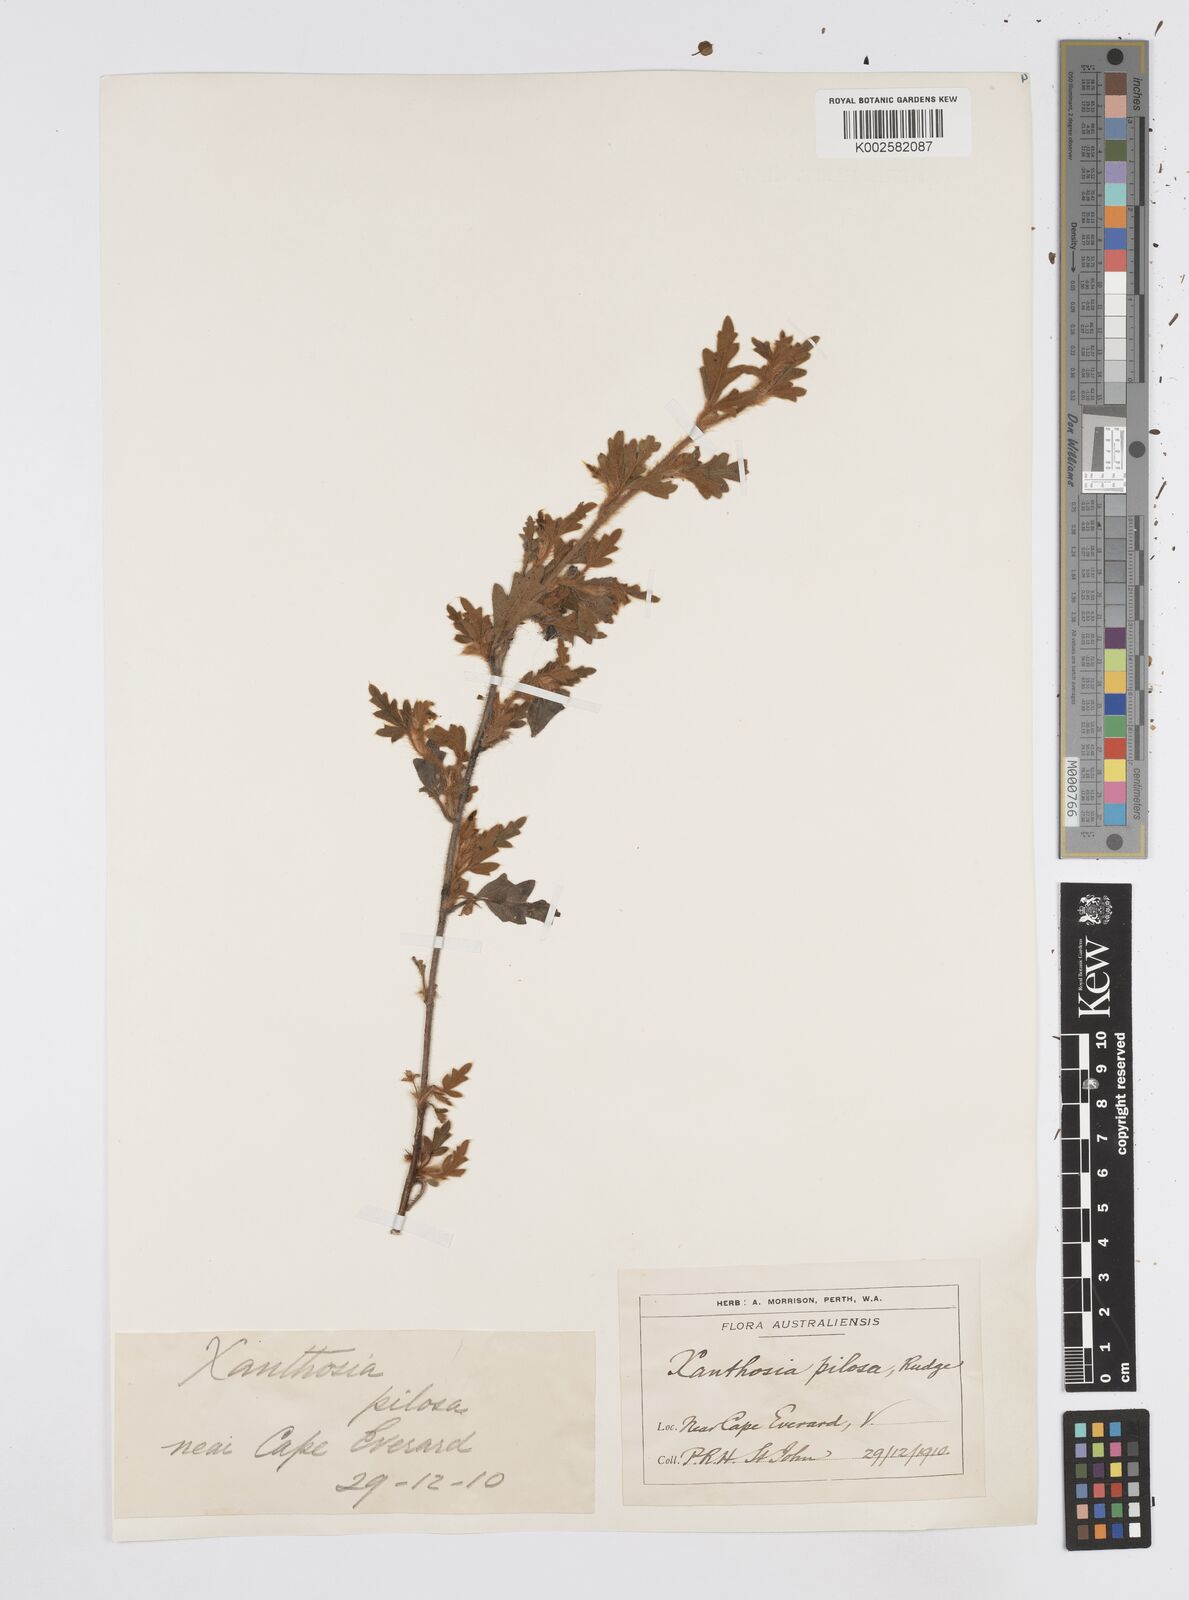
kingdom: Plantae
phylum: Tracheophyta
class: Magnoliopsida
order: Apiales
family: Apiaceae
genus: Xanthosia
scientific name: Xanthosia pilosa
